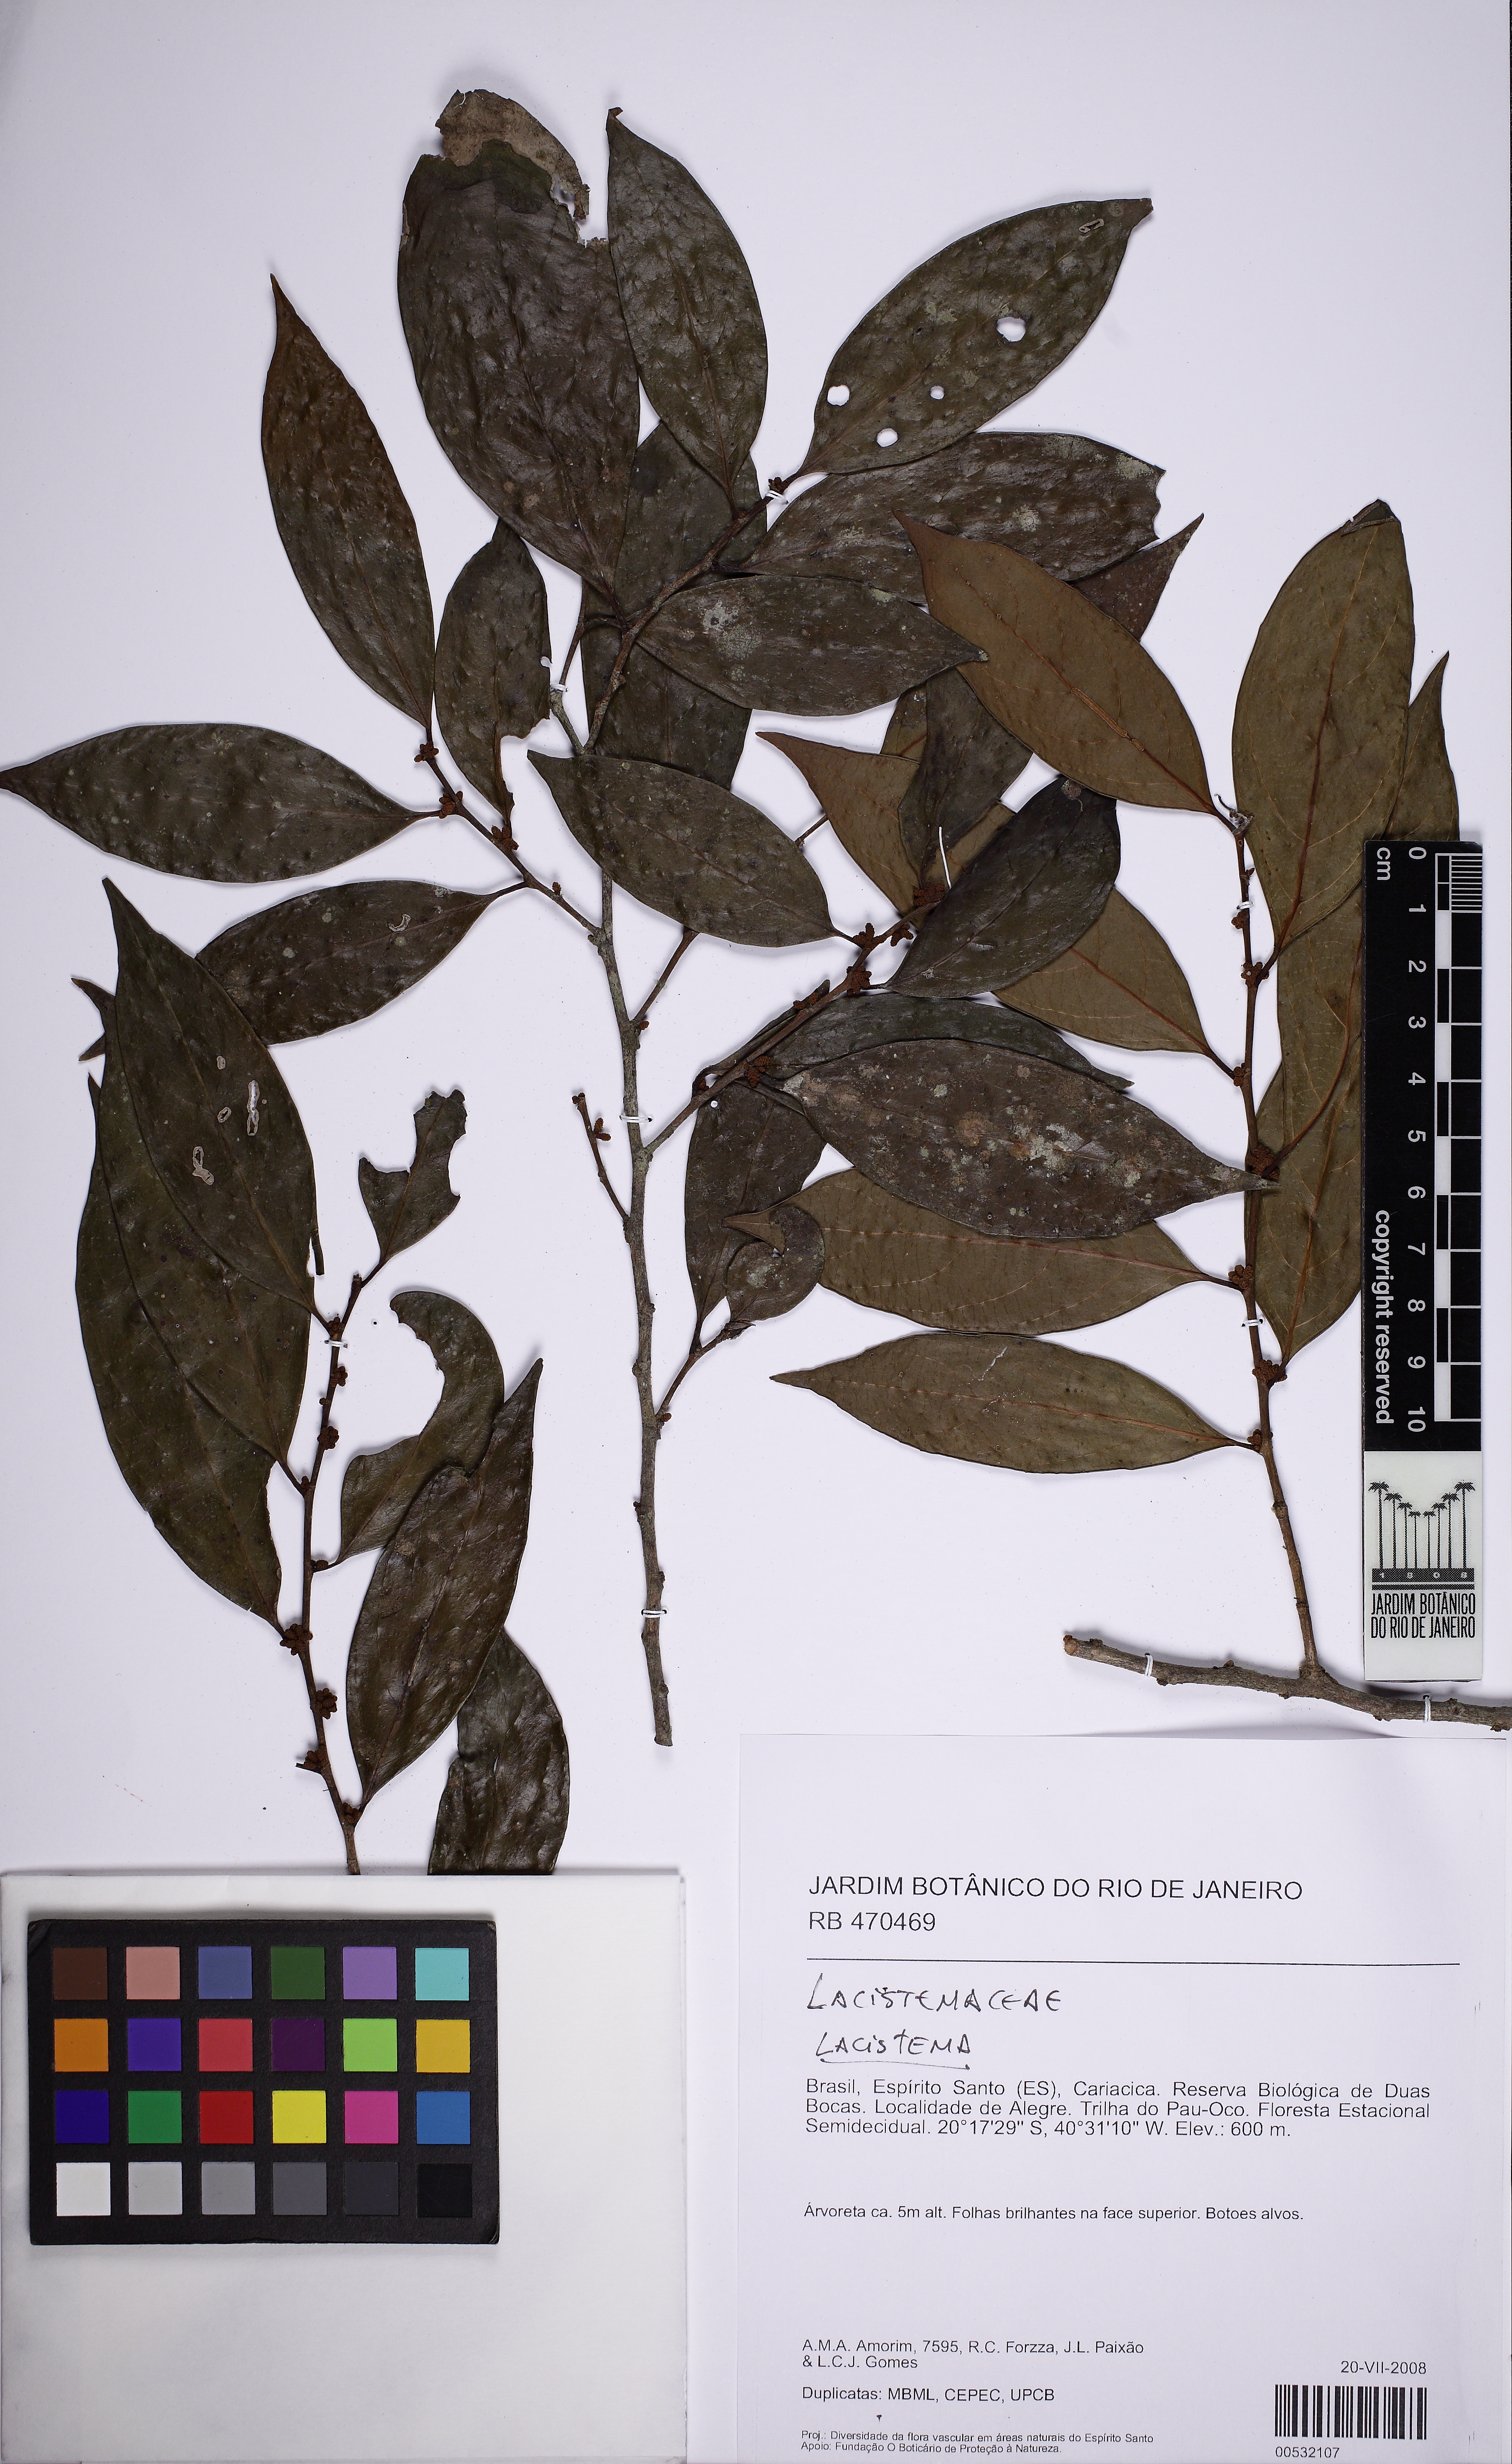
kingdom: Plantae
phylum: Tracheophyta
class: Magnoliopsida
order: Malpighiales
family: Lacistemataceae
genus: Lacistema
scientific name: Lacistema
